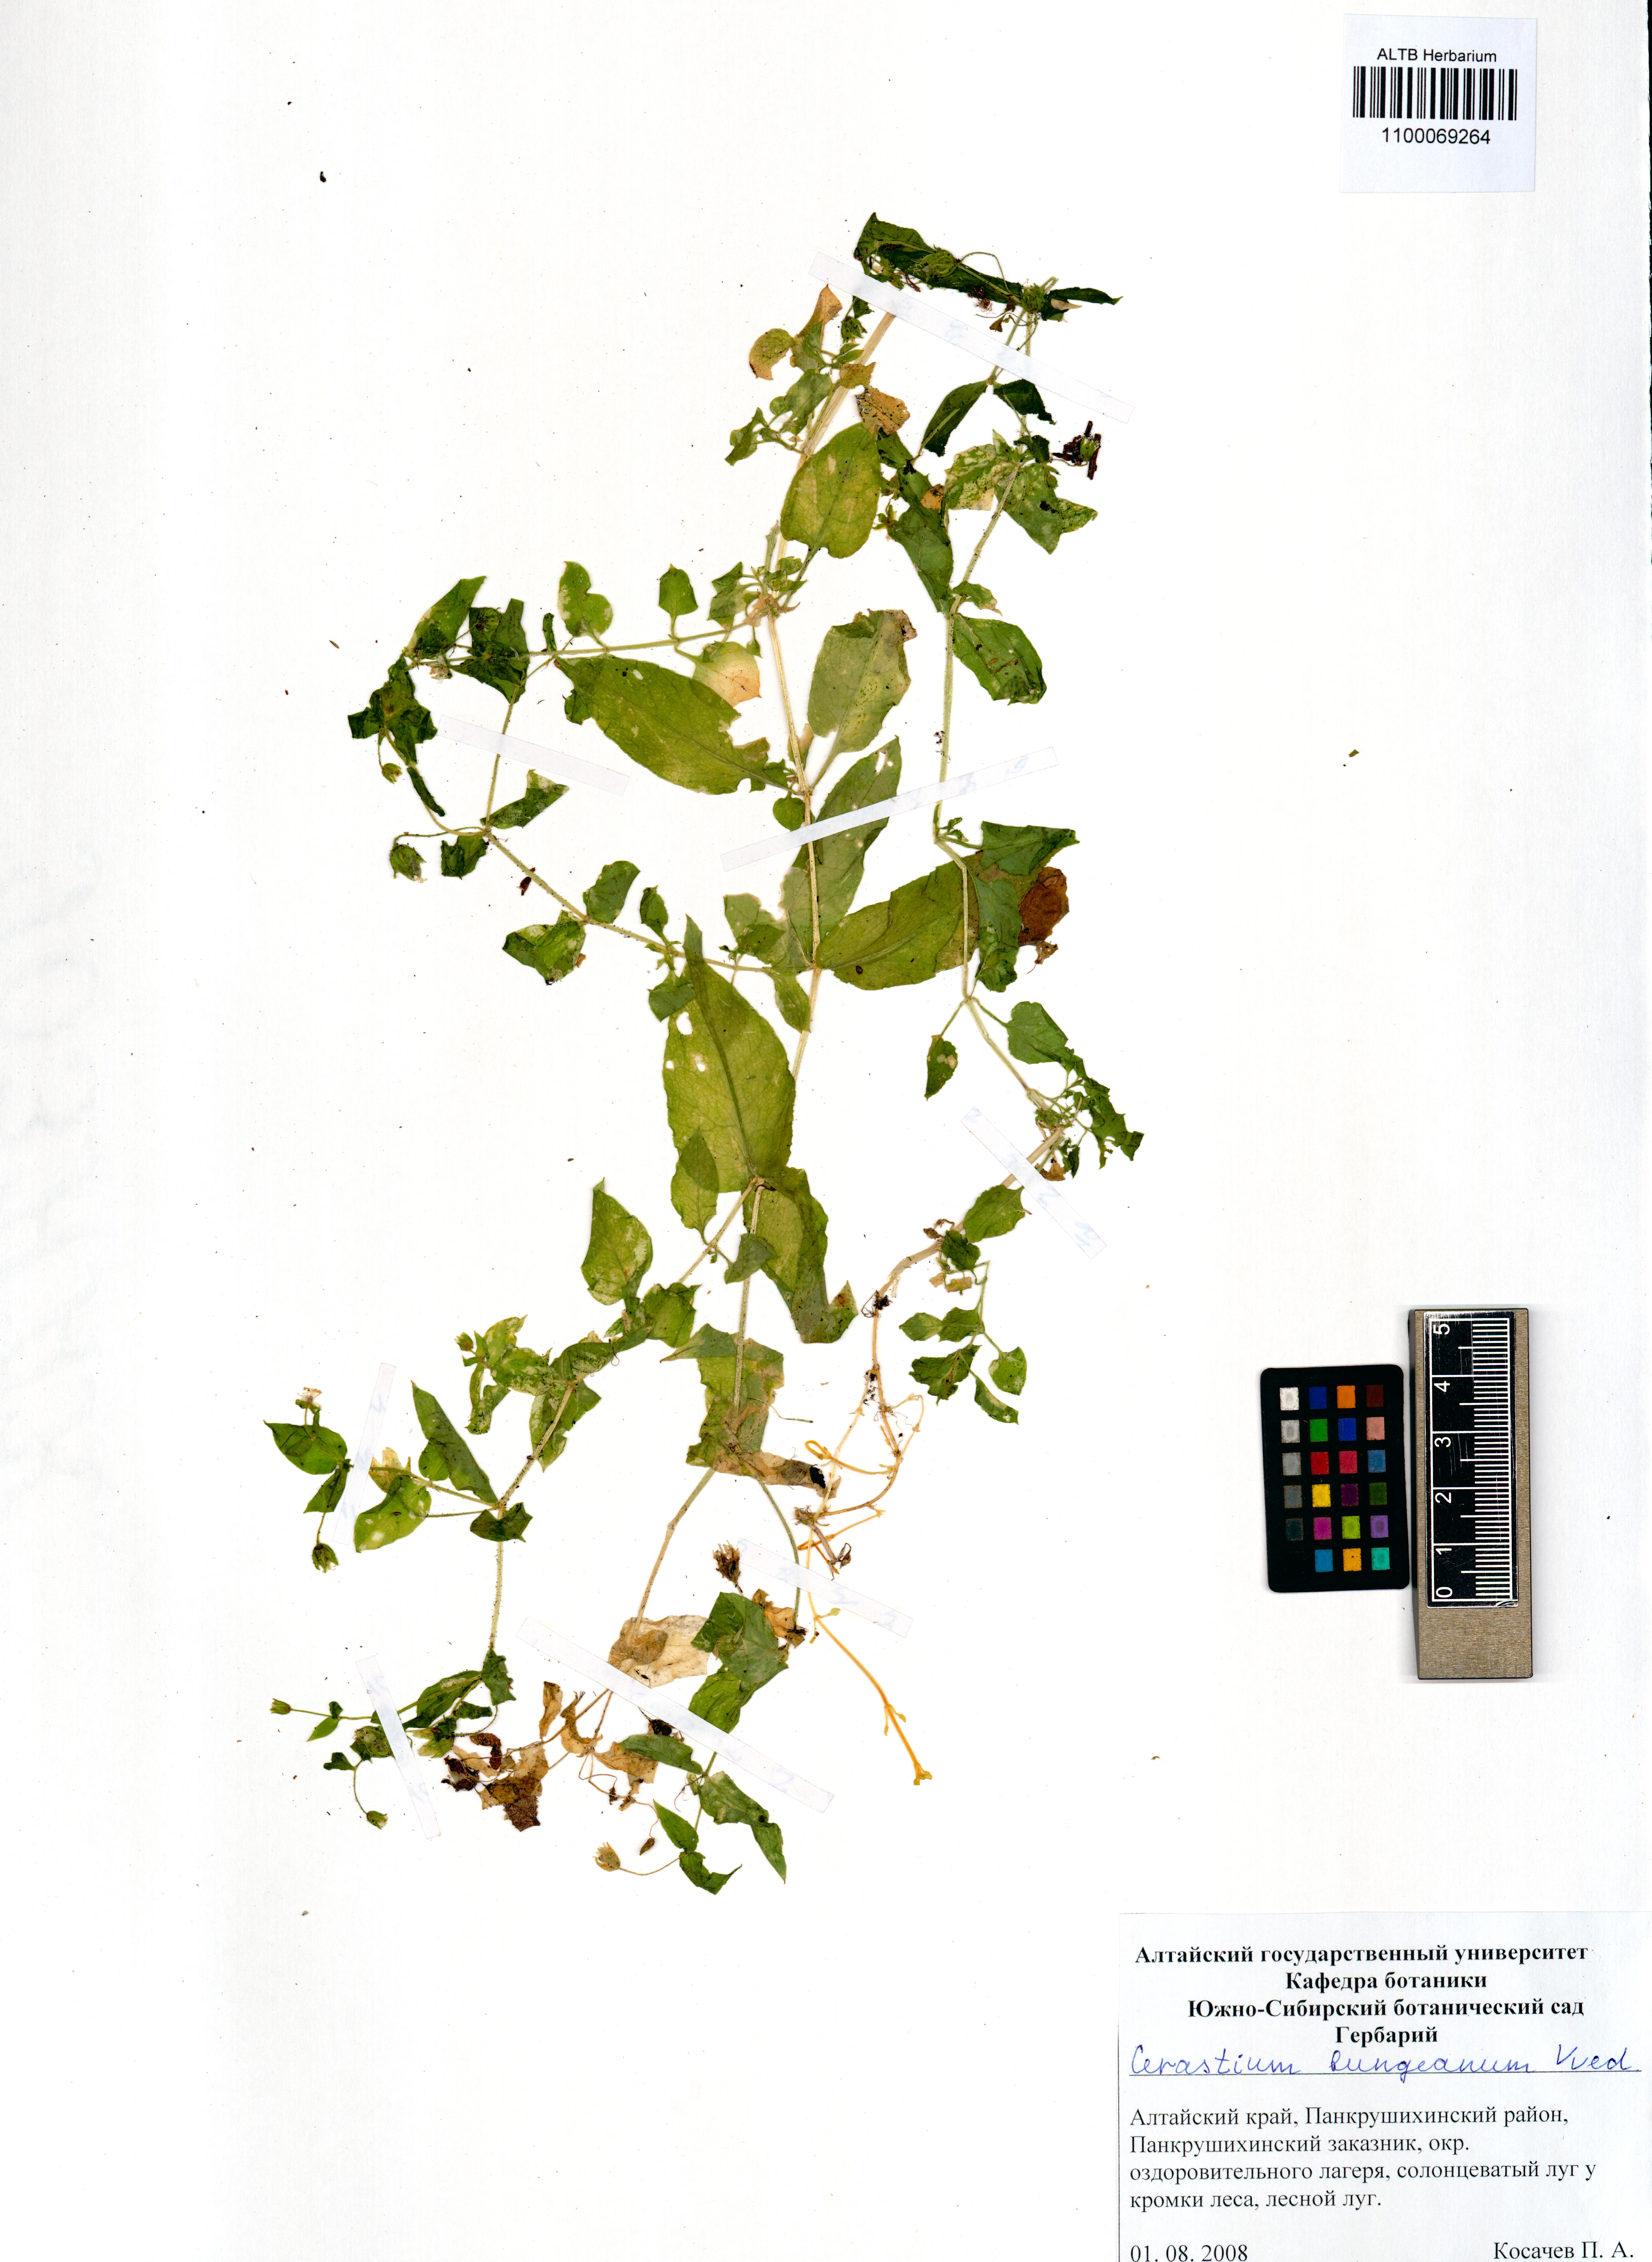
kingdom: Plantae
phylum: Tracheophyta
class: Magnoliopsida
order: Caryophyllales
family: Caryophyllaceae
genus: Dichodon
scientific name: Dichodon maximum
